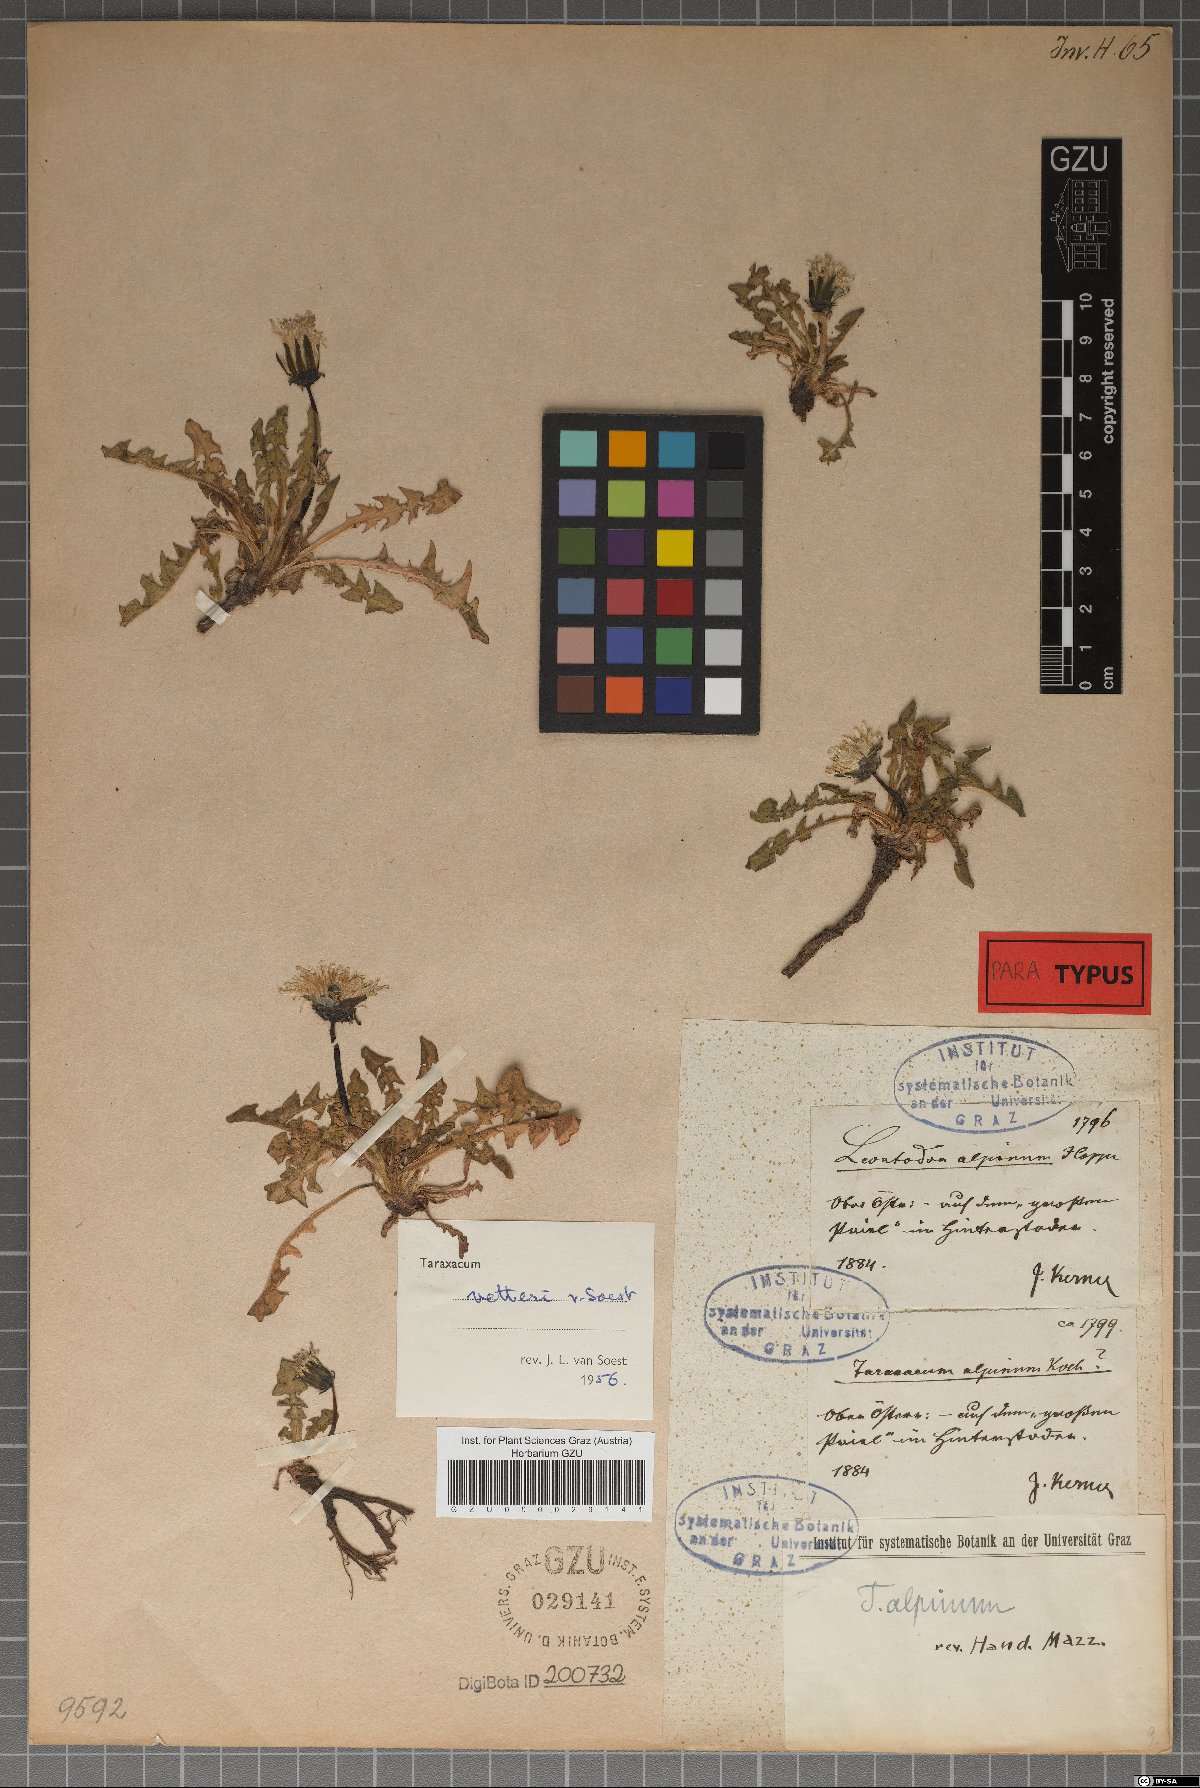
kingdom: Plantae
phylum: Tracheophyta
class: Magnoliopsida
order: Asterales
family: Asteraceae
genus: Taraxacum
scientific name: Taraxacum vetteri
